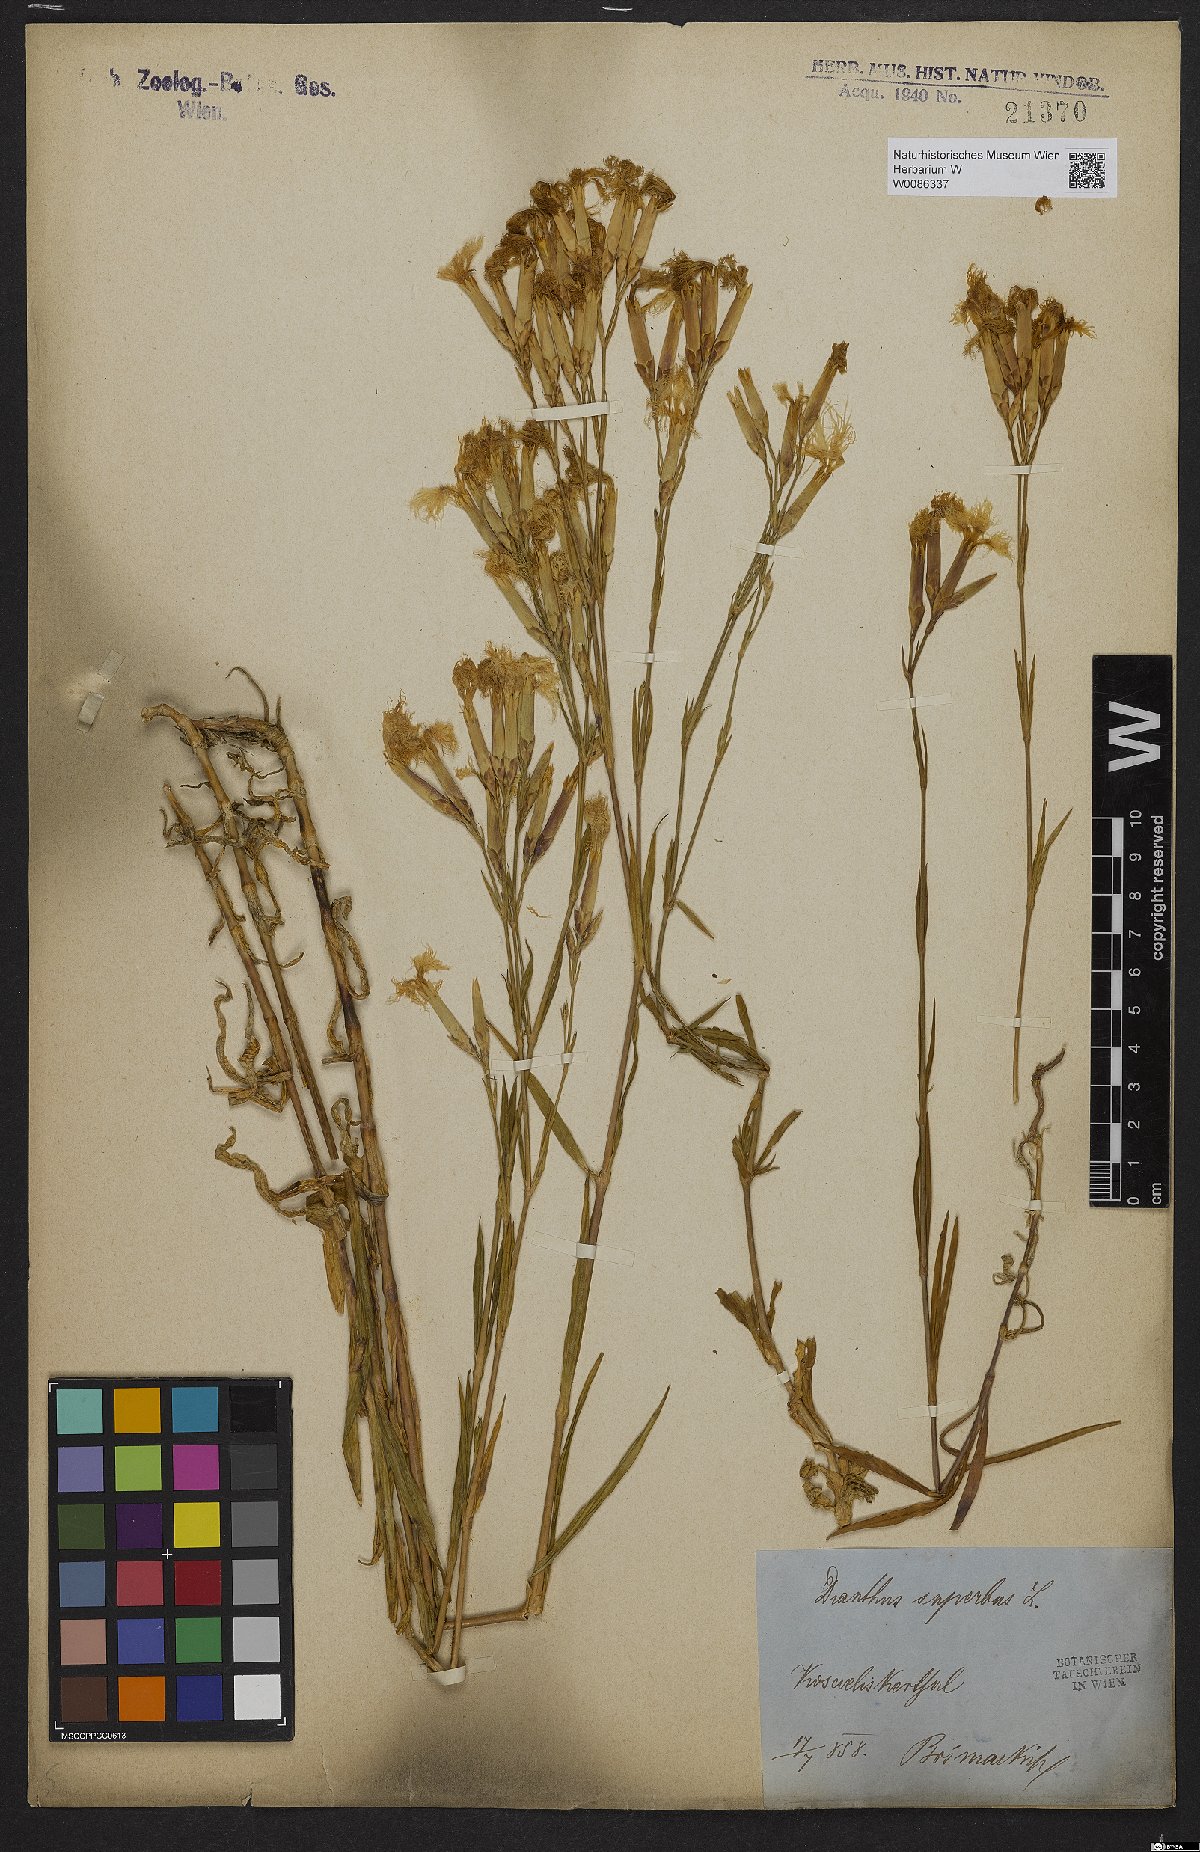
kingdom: Plantae
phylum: Tracheophyta
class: Magnoliopsida
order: Caryophyllales
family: Caryophyllaceae
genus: Dianthus
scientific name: Dianthus superbus
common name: Fringed pink
